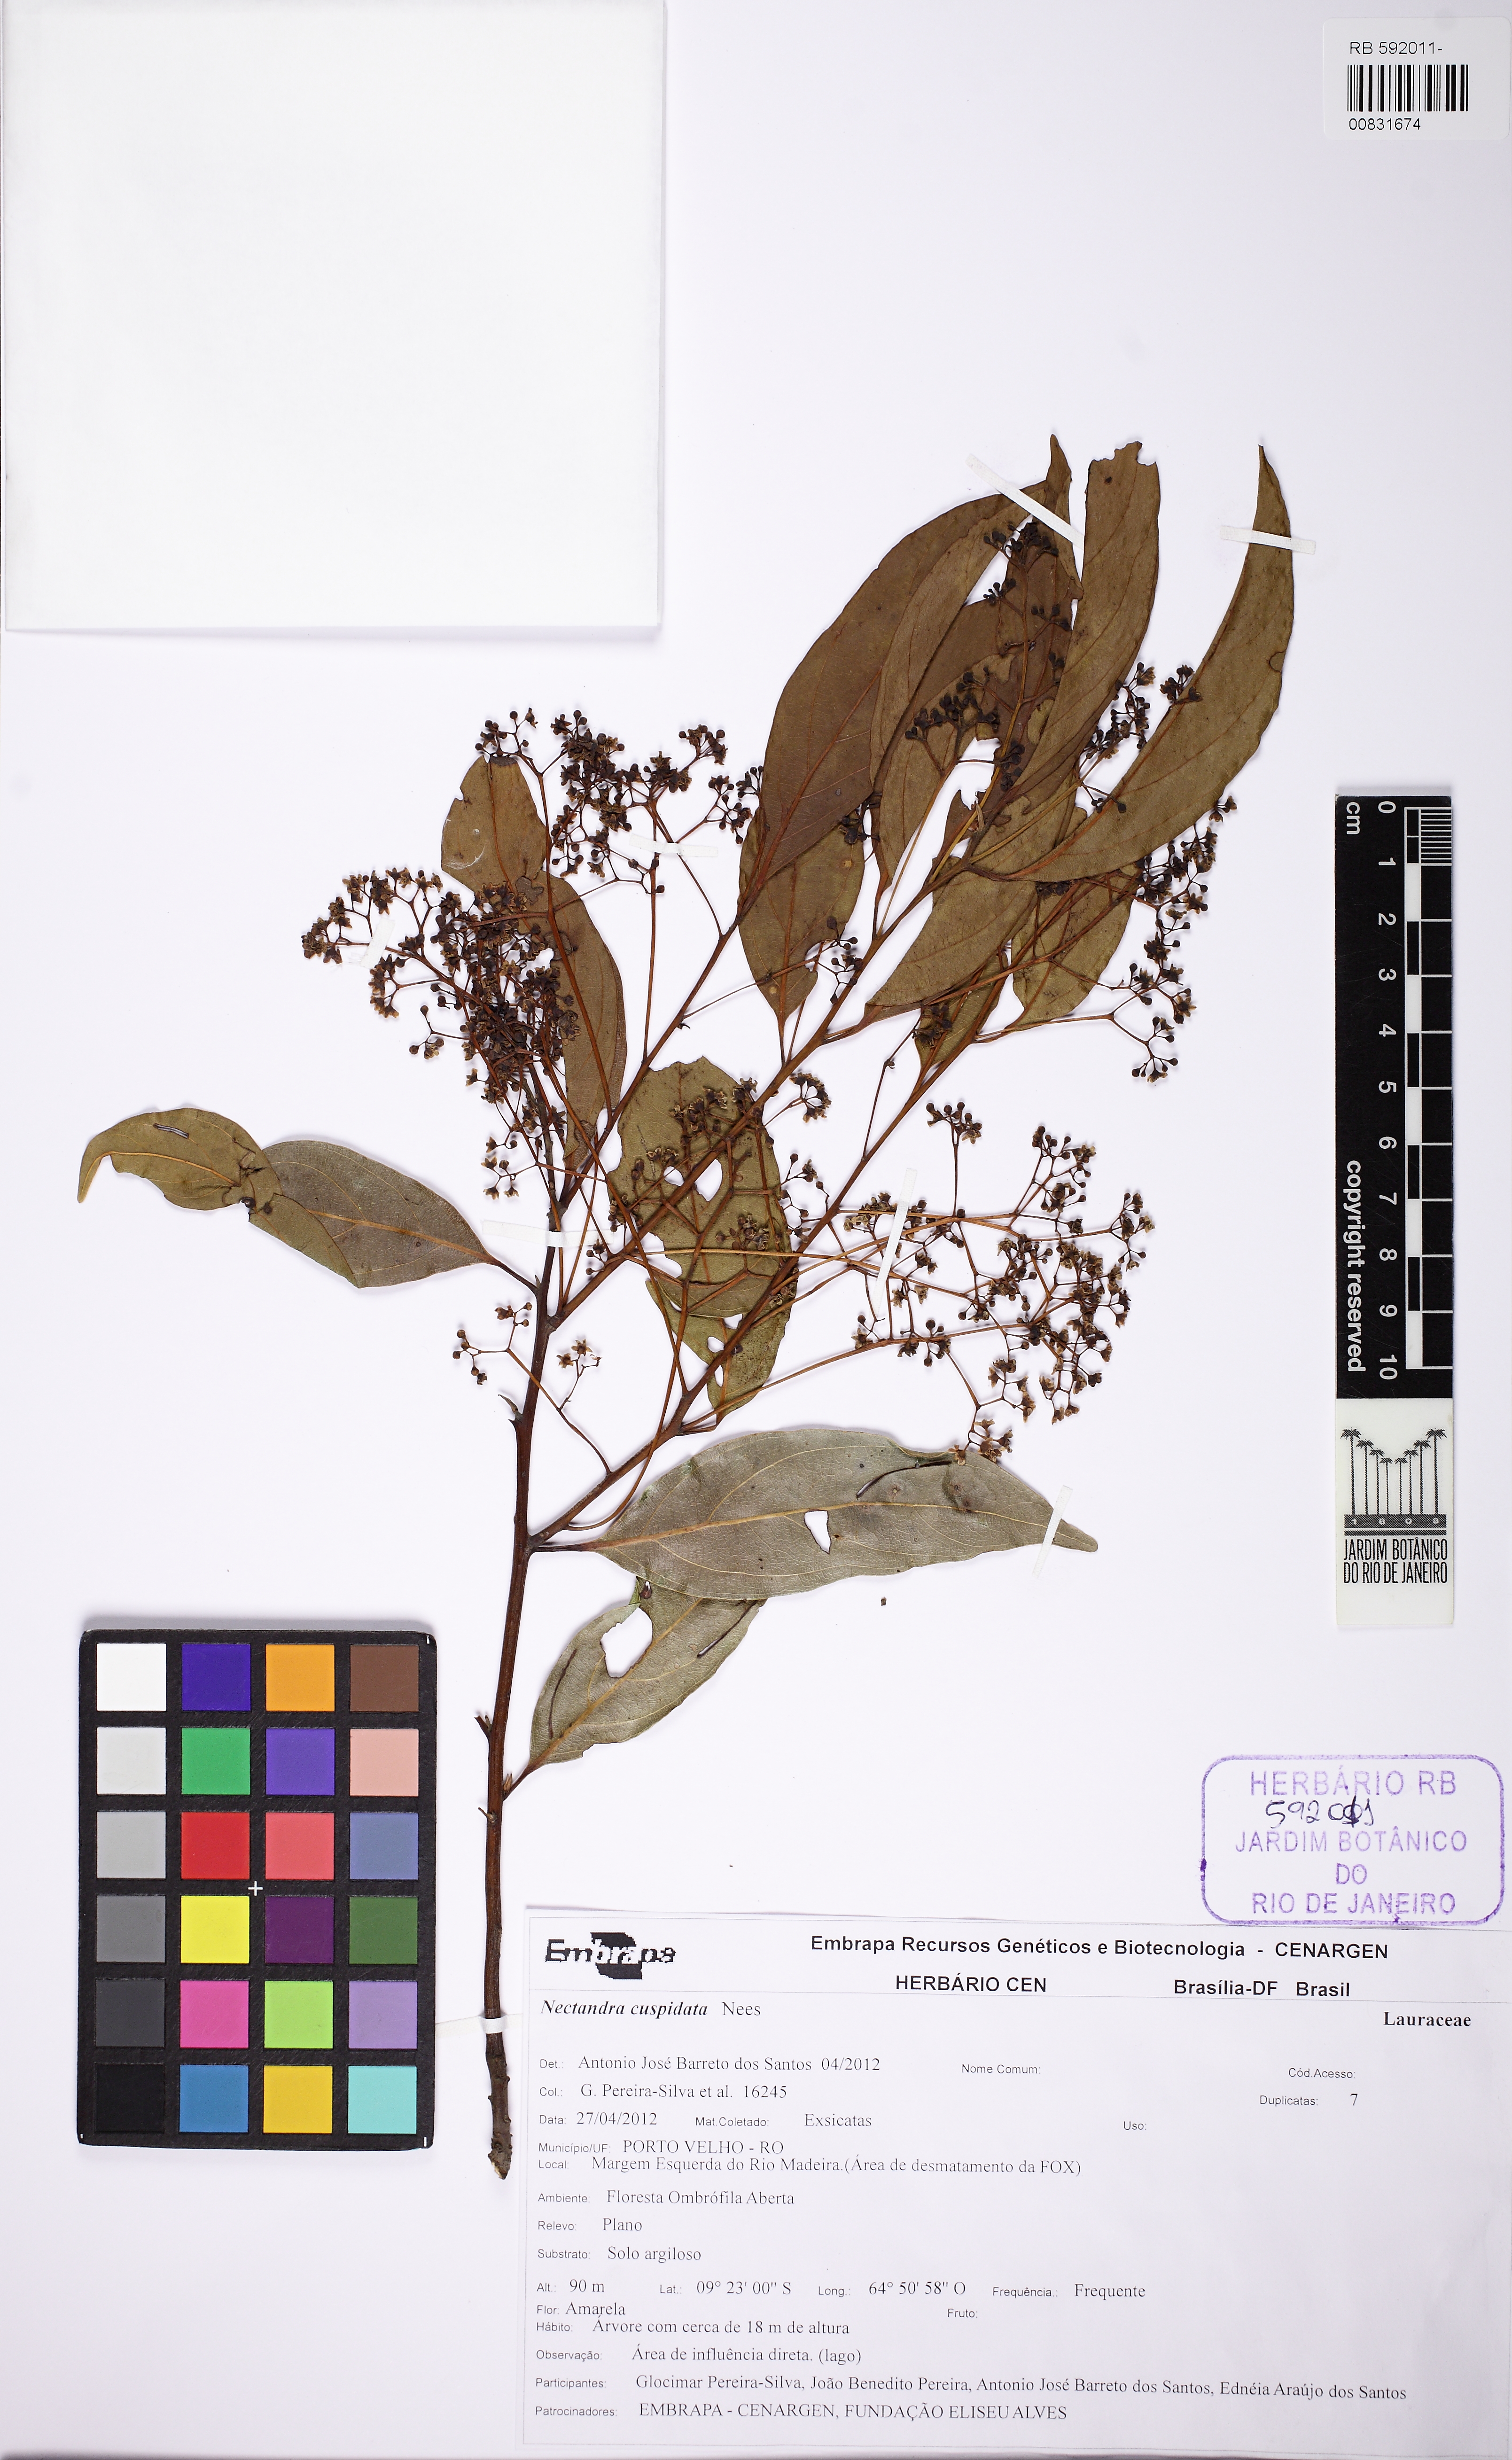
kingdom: Plantae
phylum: Tracheophyta
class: Magnoliopsida
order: Laurales
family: Lauraceae
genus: Nectandra
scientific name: Nectandra cuspidata
